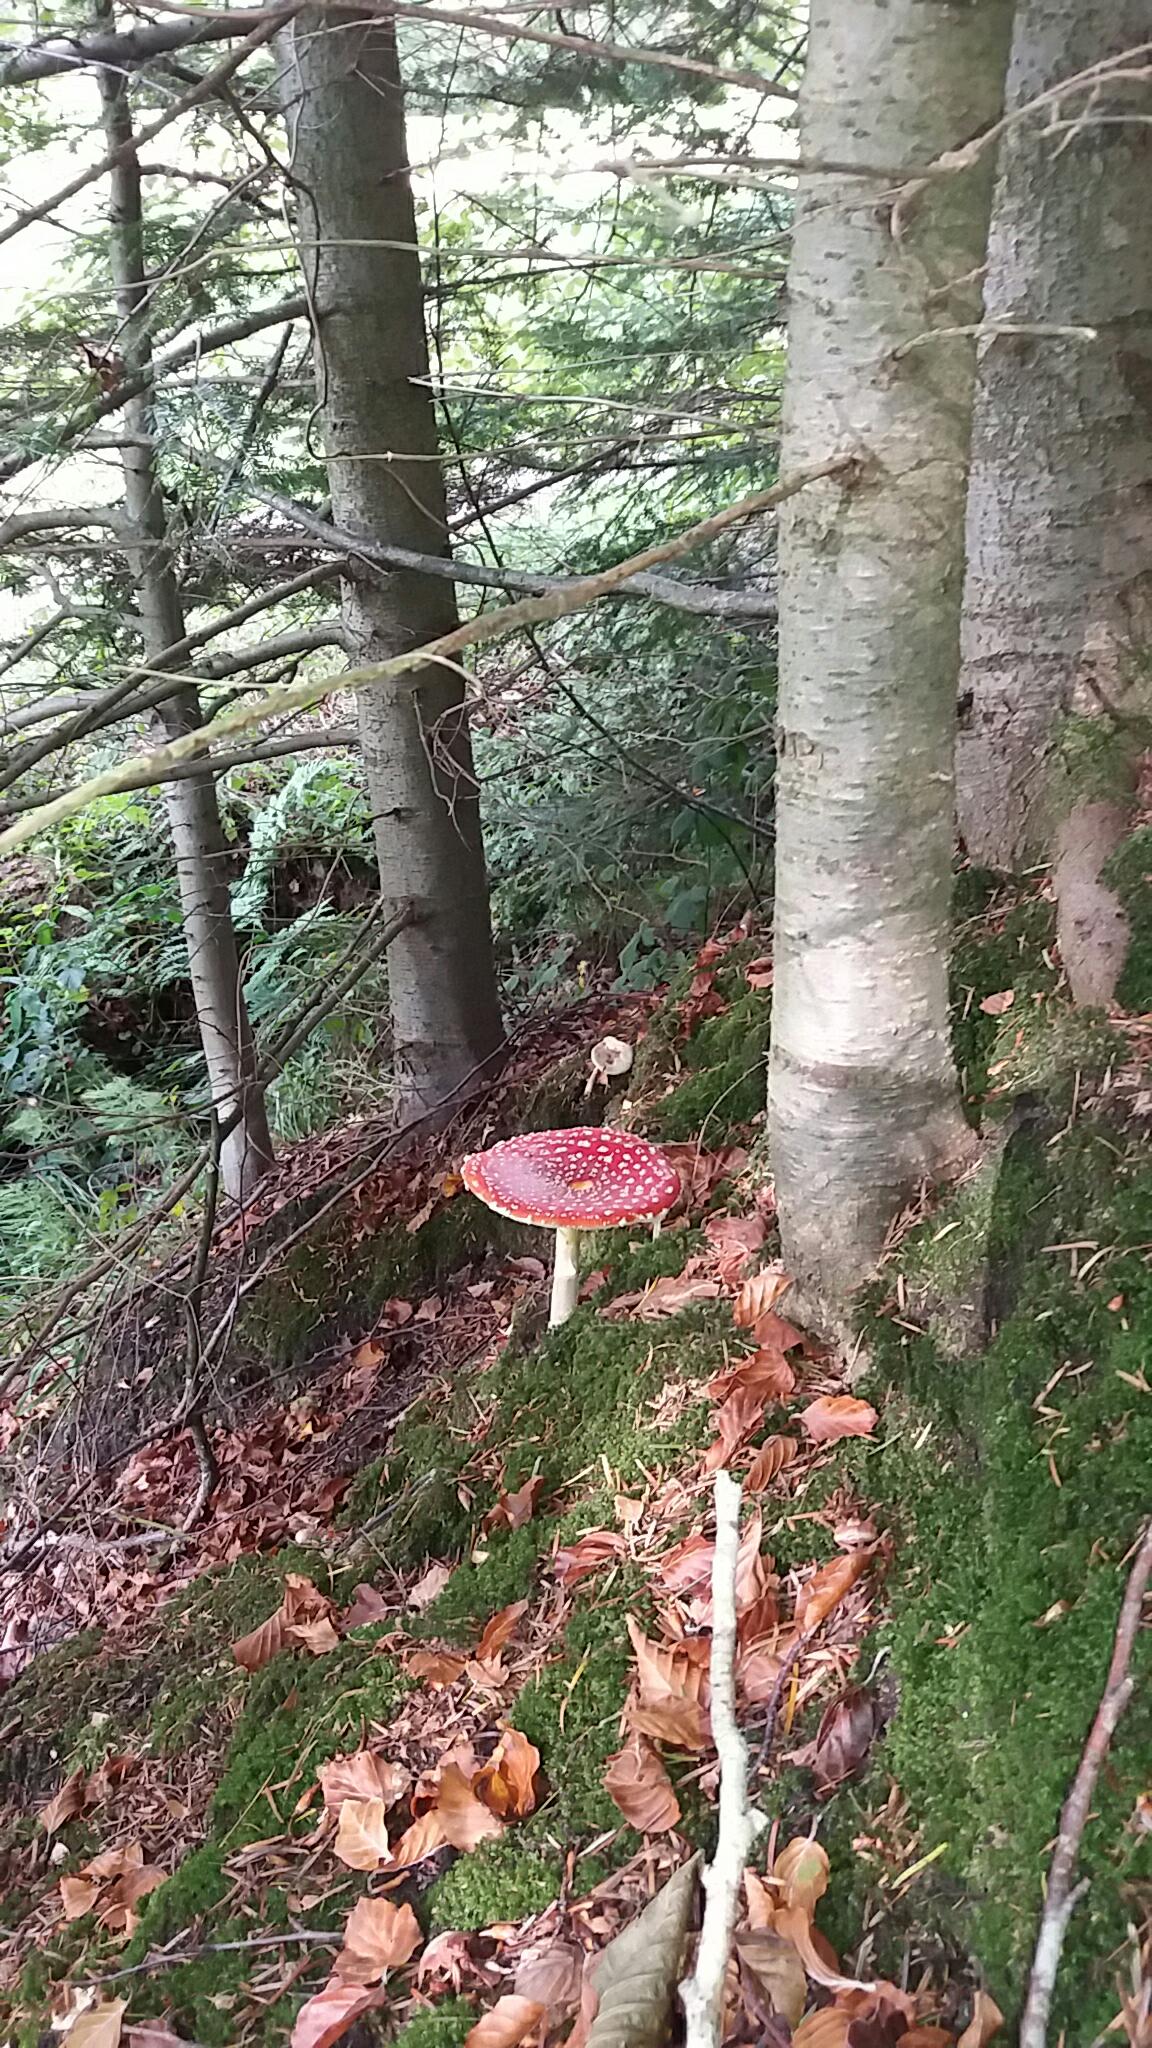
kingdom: Fungi
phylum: Basidiomycota
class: Agaricomycetes
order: Agaricales
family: Amanitaceae
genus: Amanita
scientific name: Amanita muscaria
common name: rød fluesvamp
